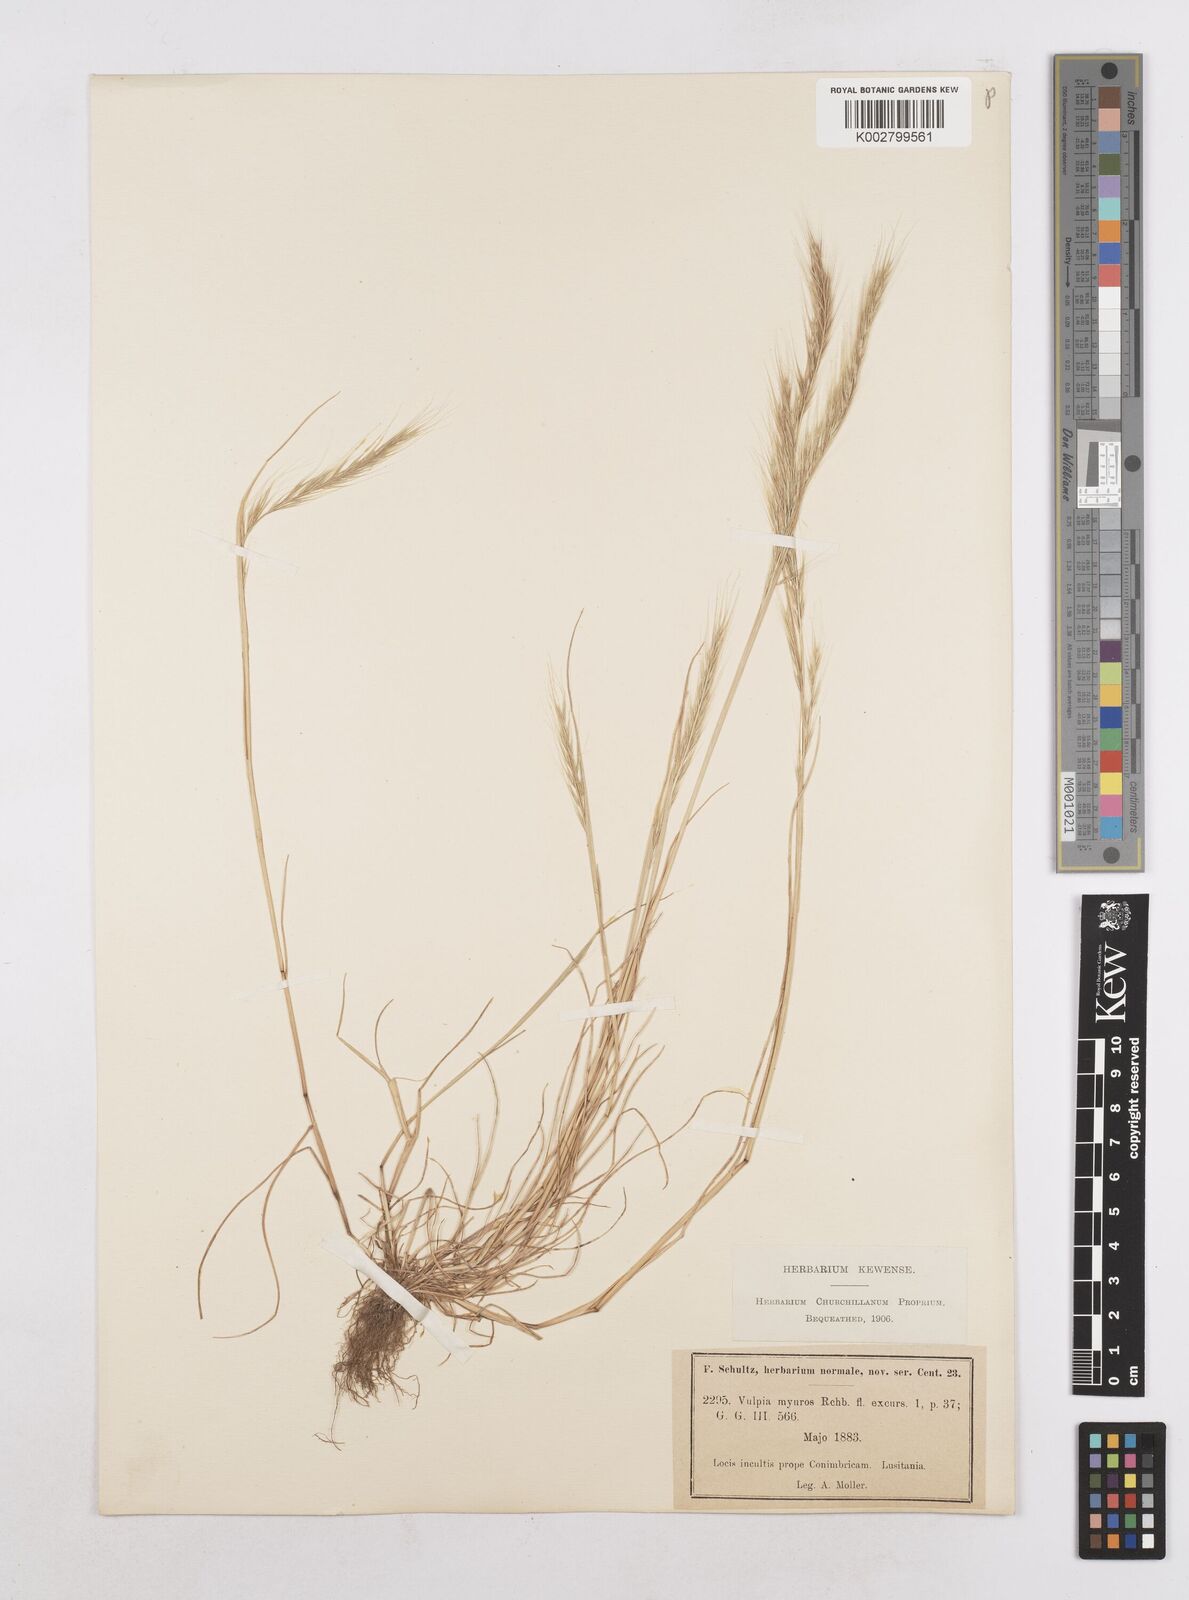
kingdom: Plantae
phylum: Tracheophyta
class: Liliopsida
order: Poales
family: Poaceae
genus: Festuca
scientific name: Festuca myuros
